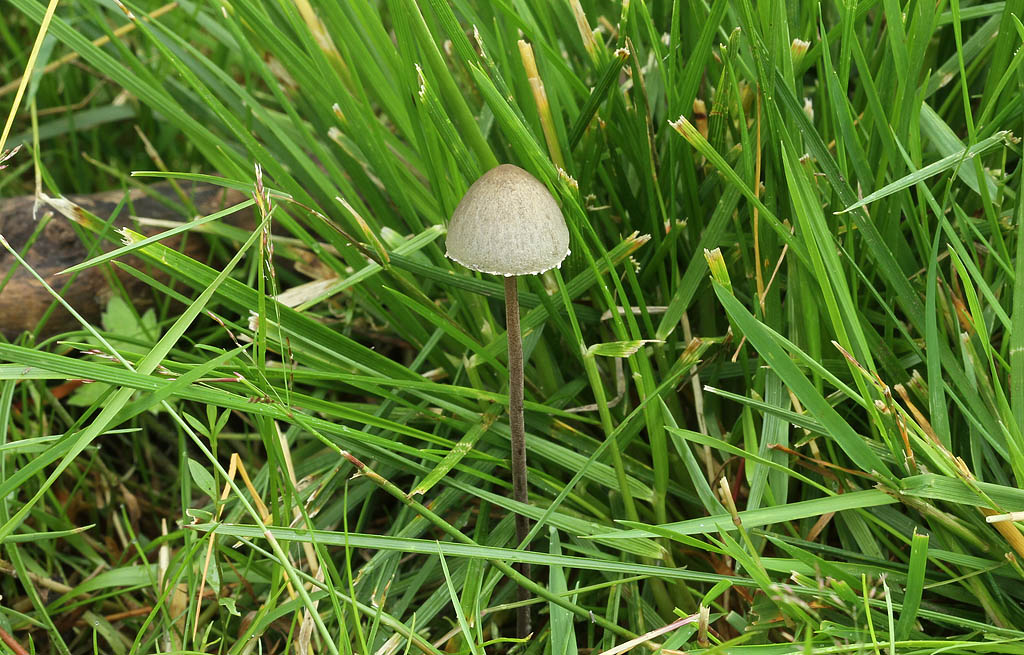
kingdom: Fungi
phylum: Basidiomycota
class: Agaricomycetes
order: Agaricales
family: Bolbitiaceae
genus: Panaeolus
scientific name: Panaeolus papilionaceus
